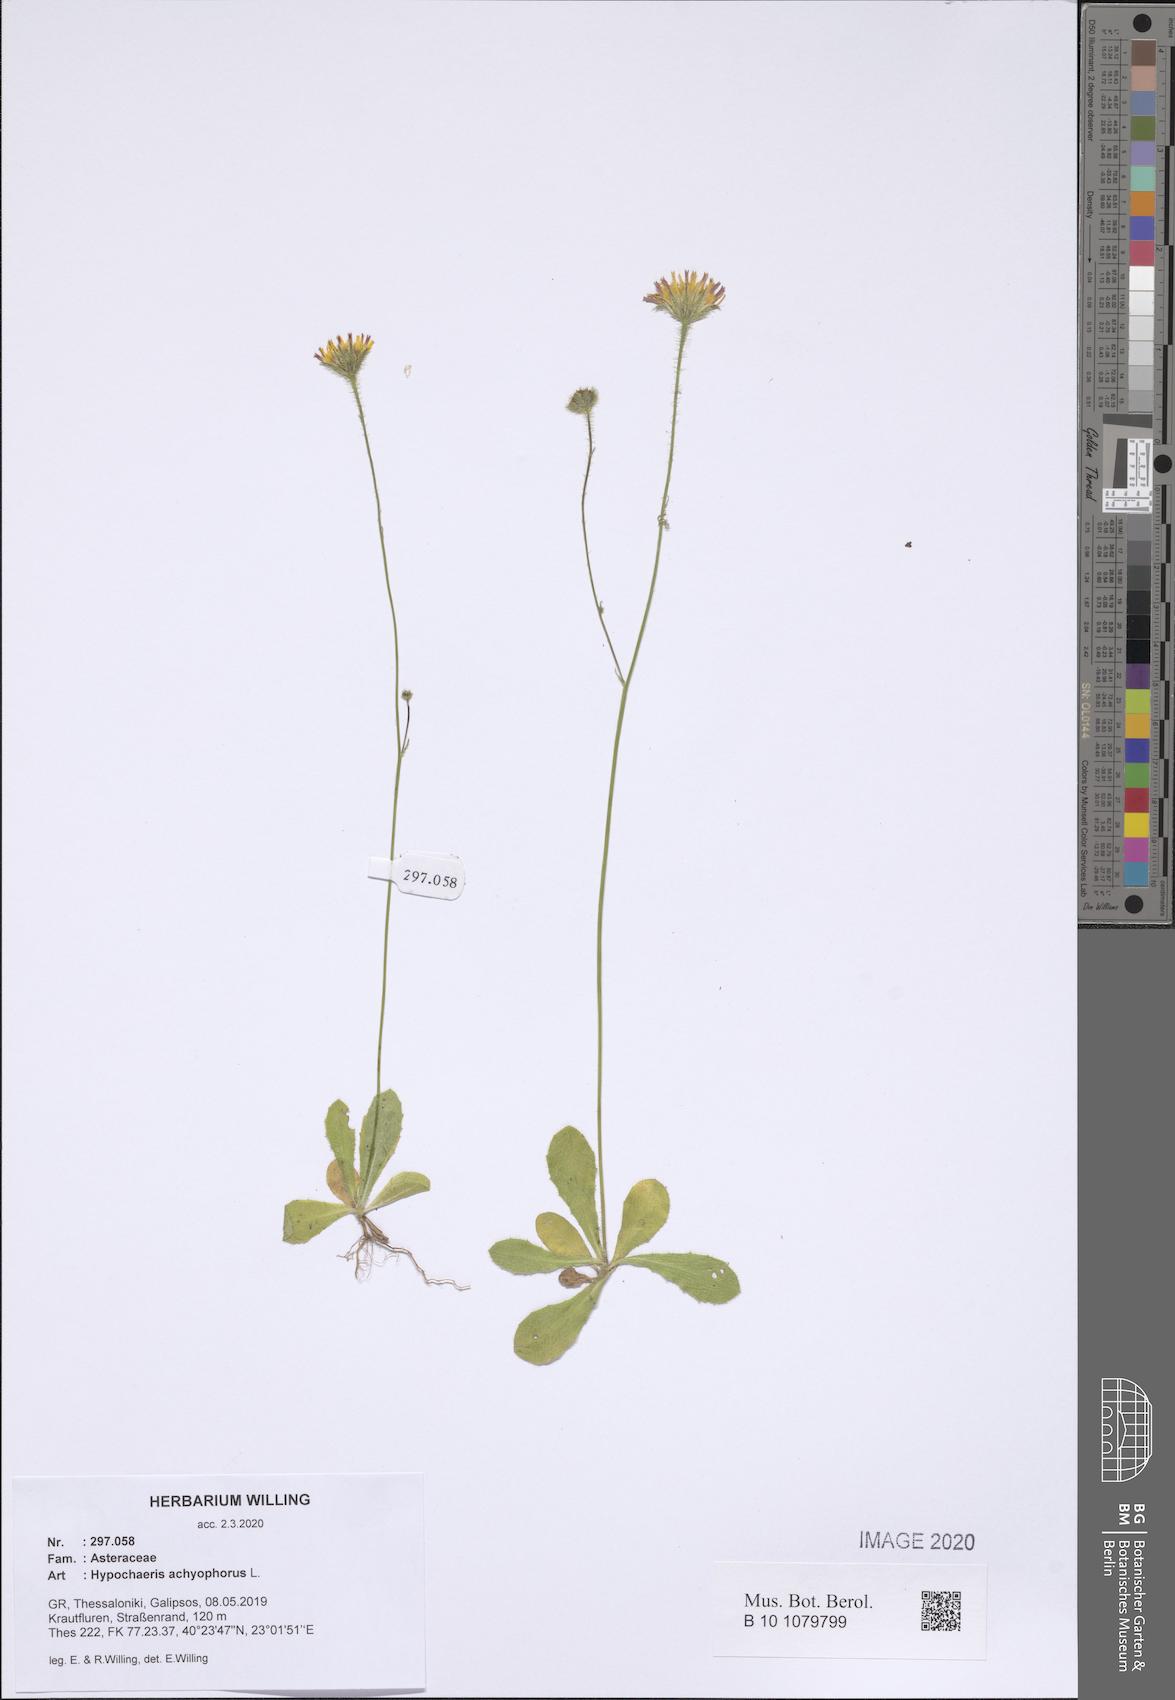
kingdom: Plantae
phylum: Tracheophyta
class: Magnoliopsida
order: Asterales
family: Asteraceae
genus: Achyrophorus
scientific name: Achyrophorus valdesii
